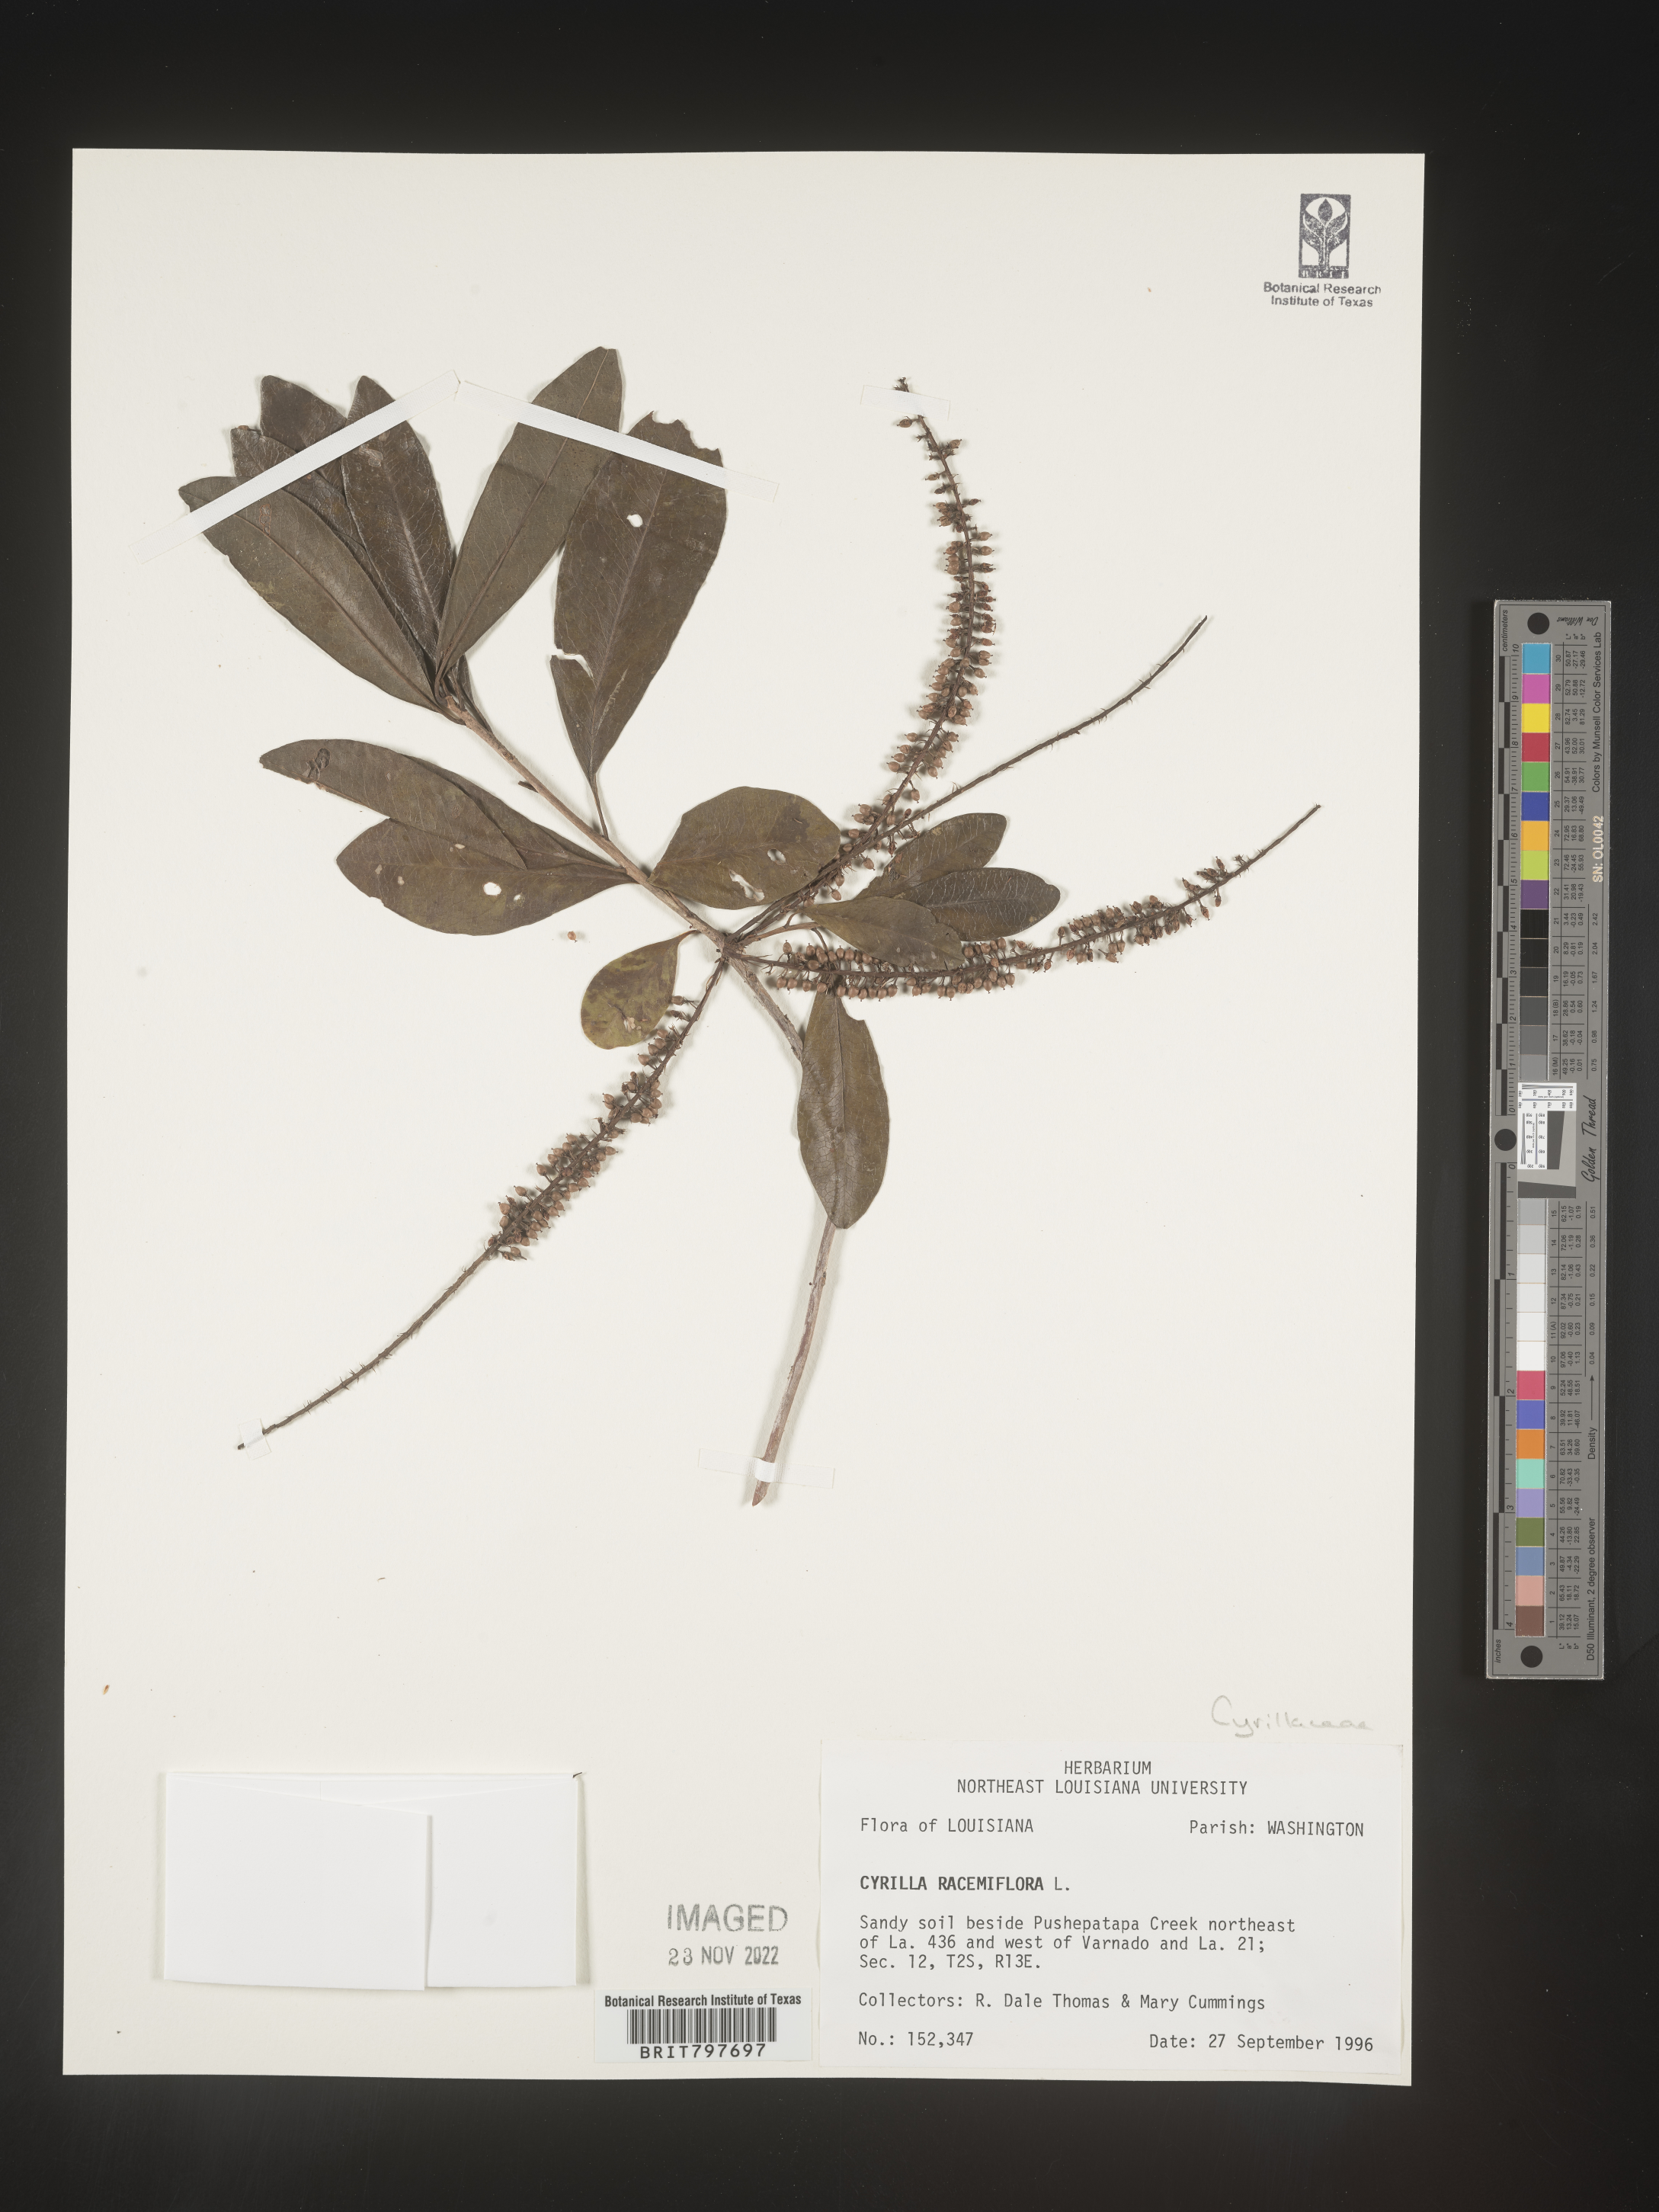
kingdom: Plantae
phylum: Tracheophyta
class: Magnoliopsida
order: Ericales
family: Cyrillaceae
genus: Cyrilla
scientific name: Cyrilla racemiflora
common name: Black titi
